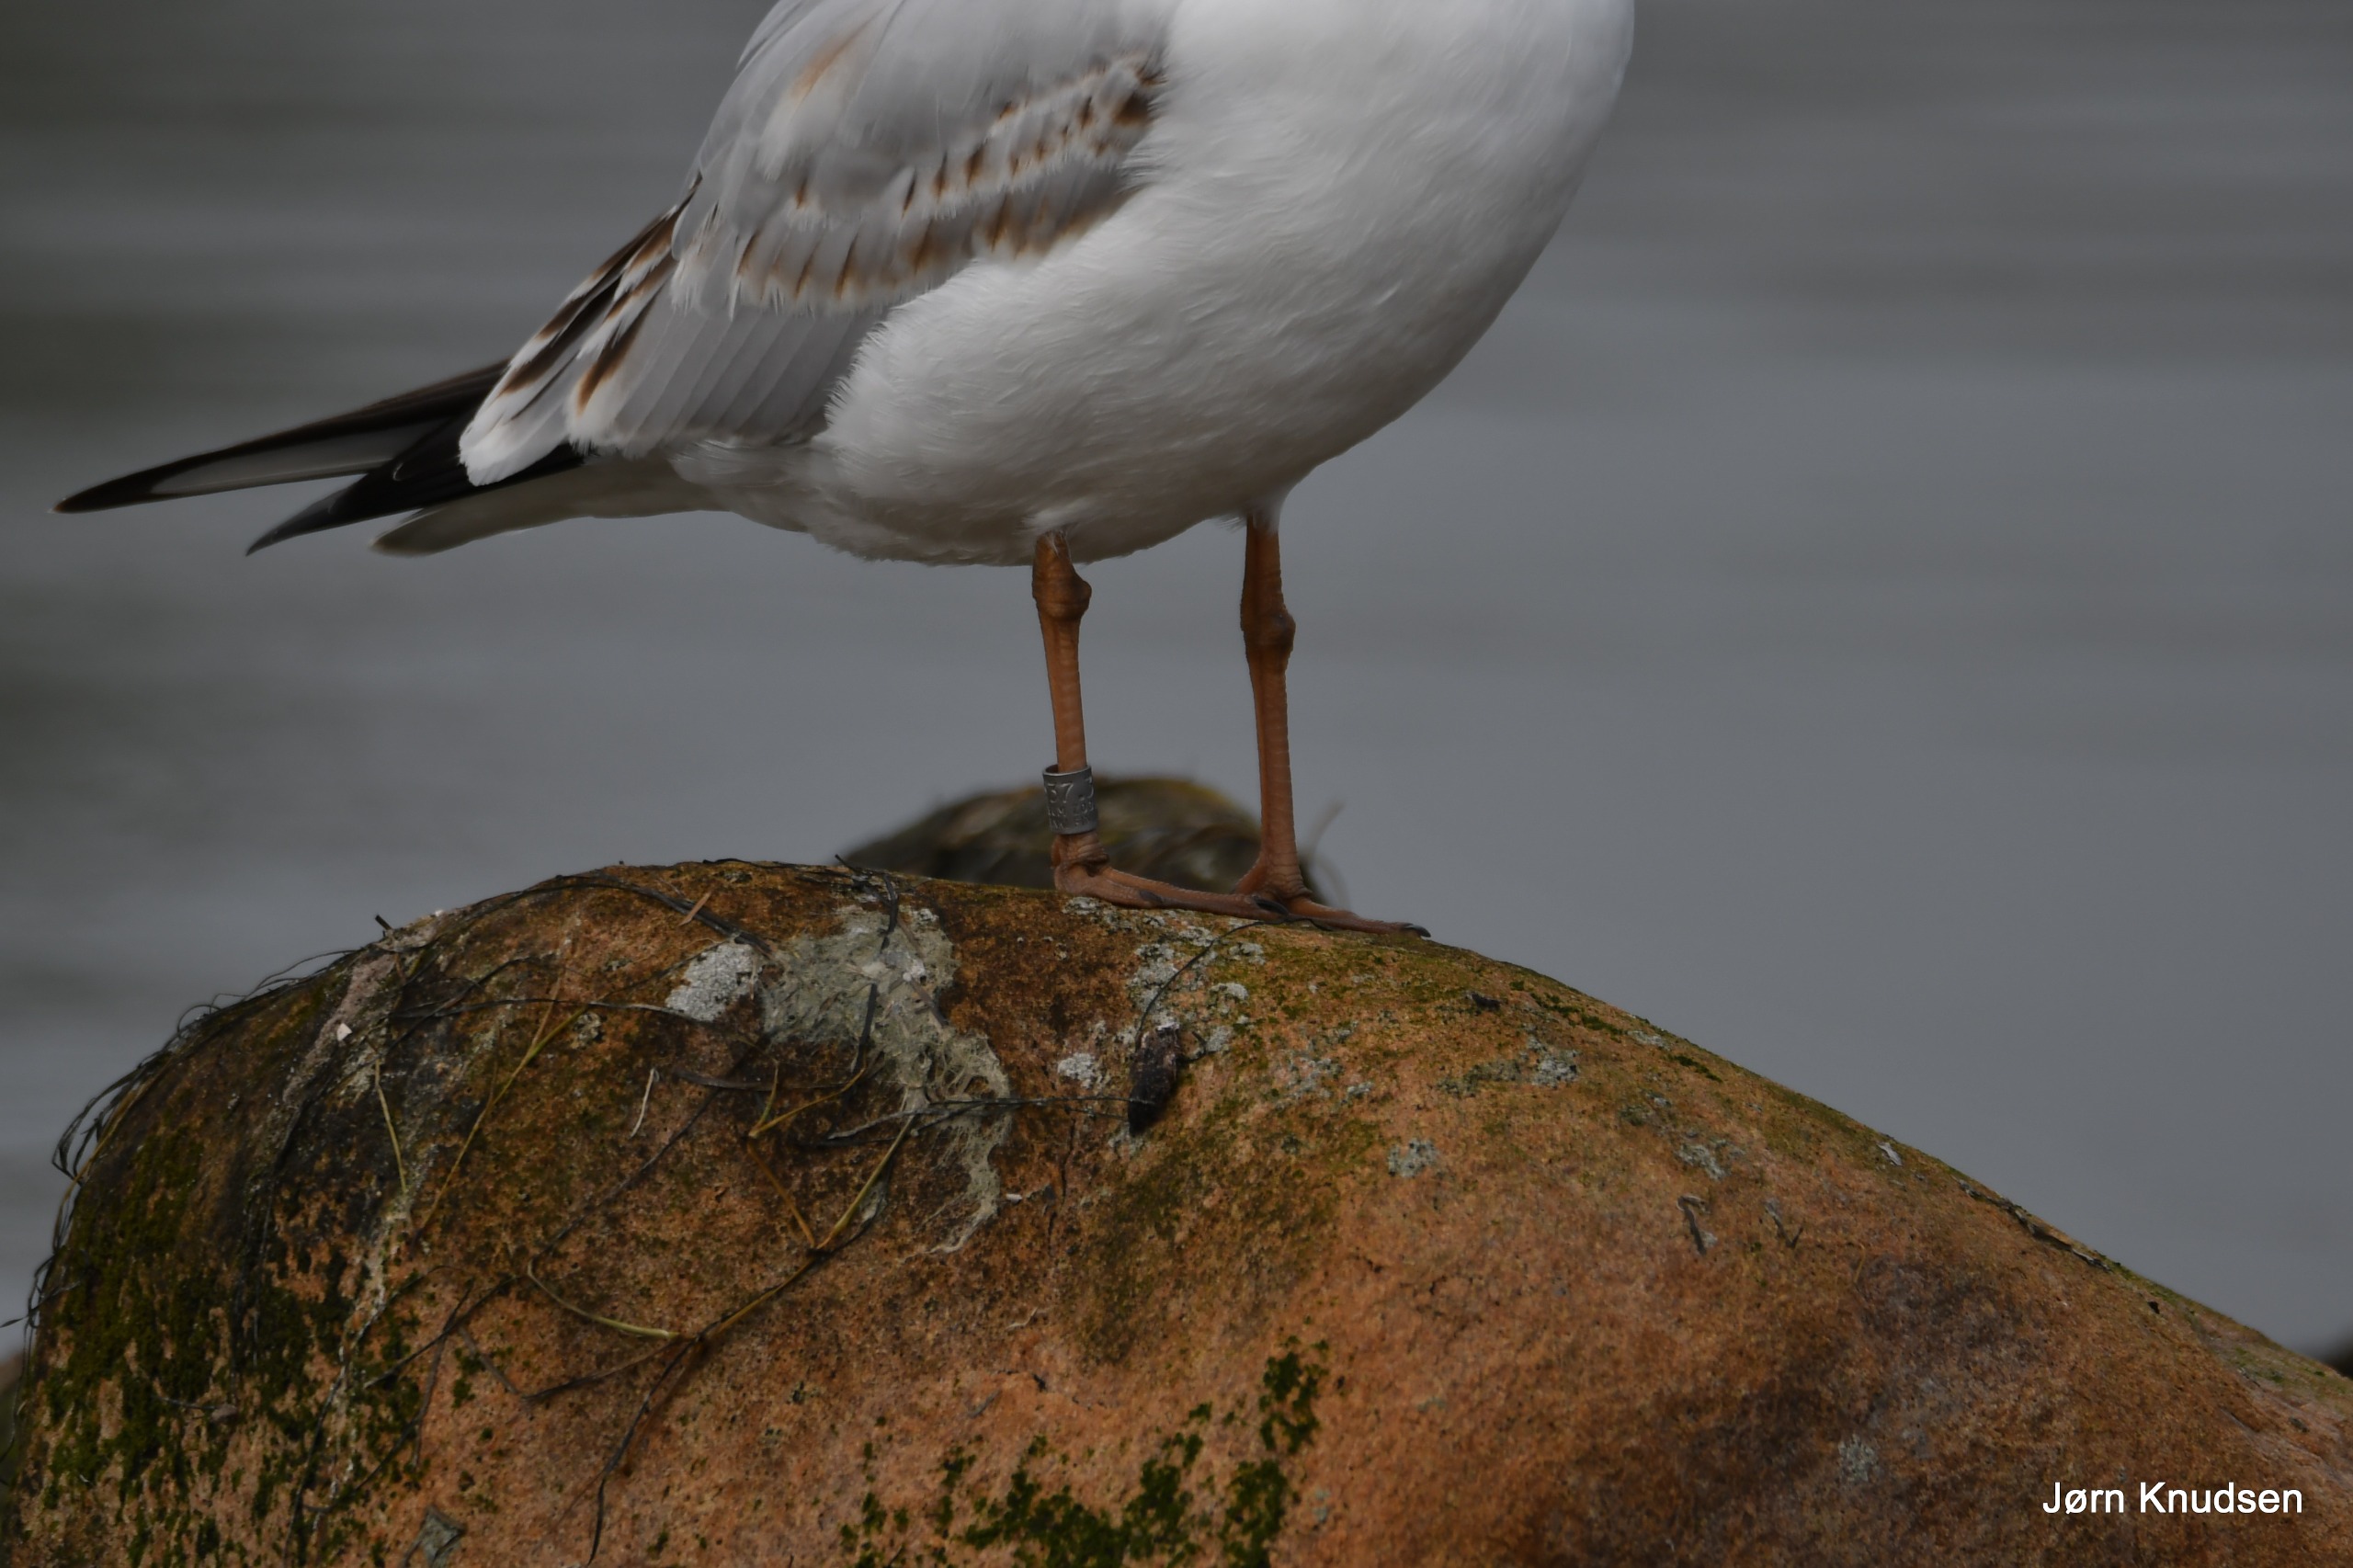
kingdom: Animalia
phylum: Chordata
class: Aves
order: Charadriiformes
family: Laridae
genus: Chroicocephalus
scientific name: Chroicocephalus ridibundus
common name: Hættemåge
